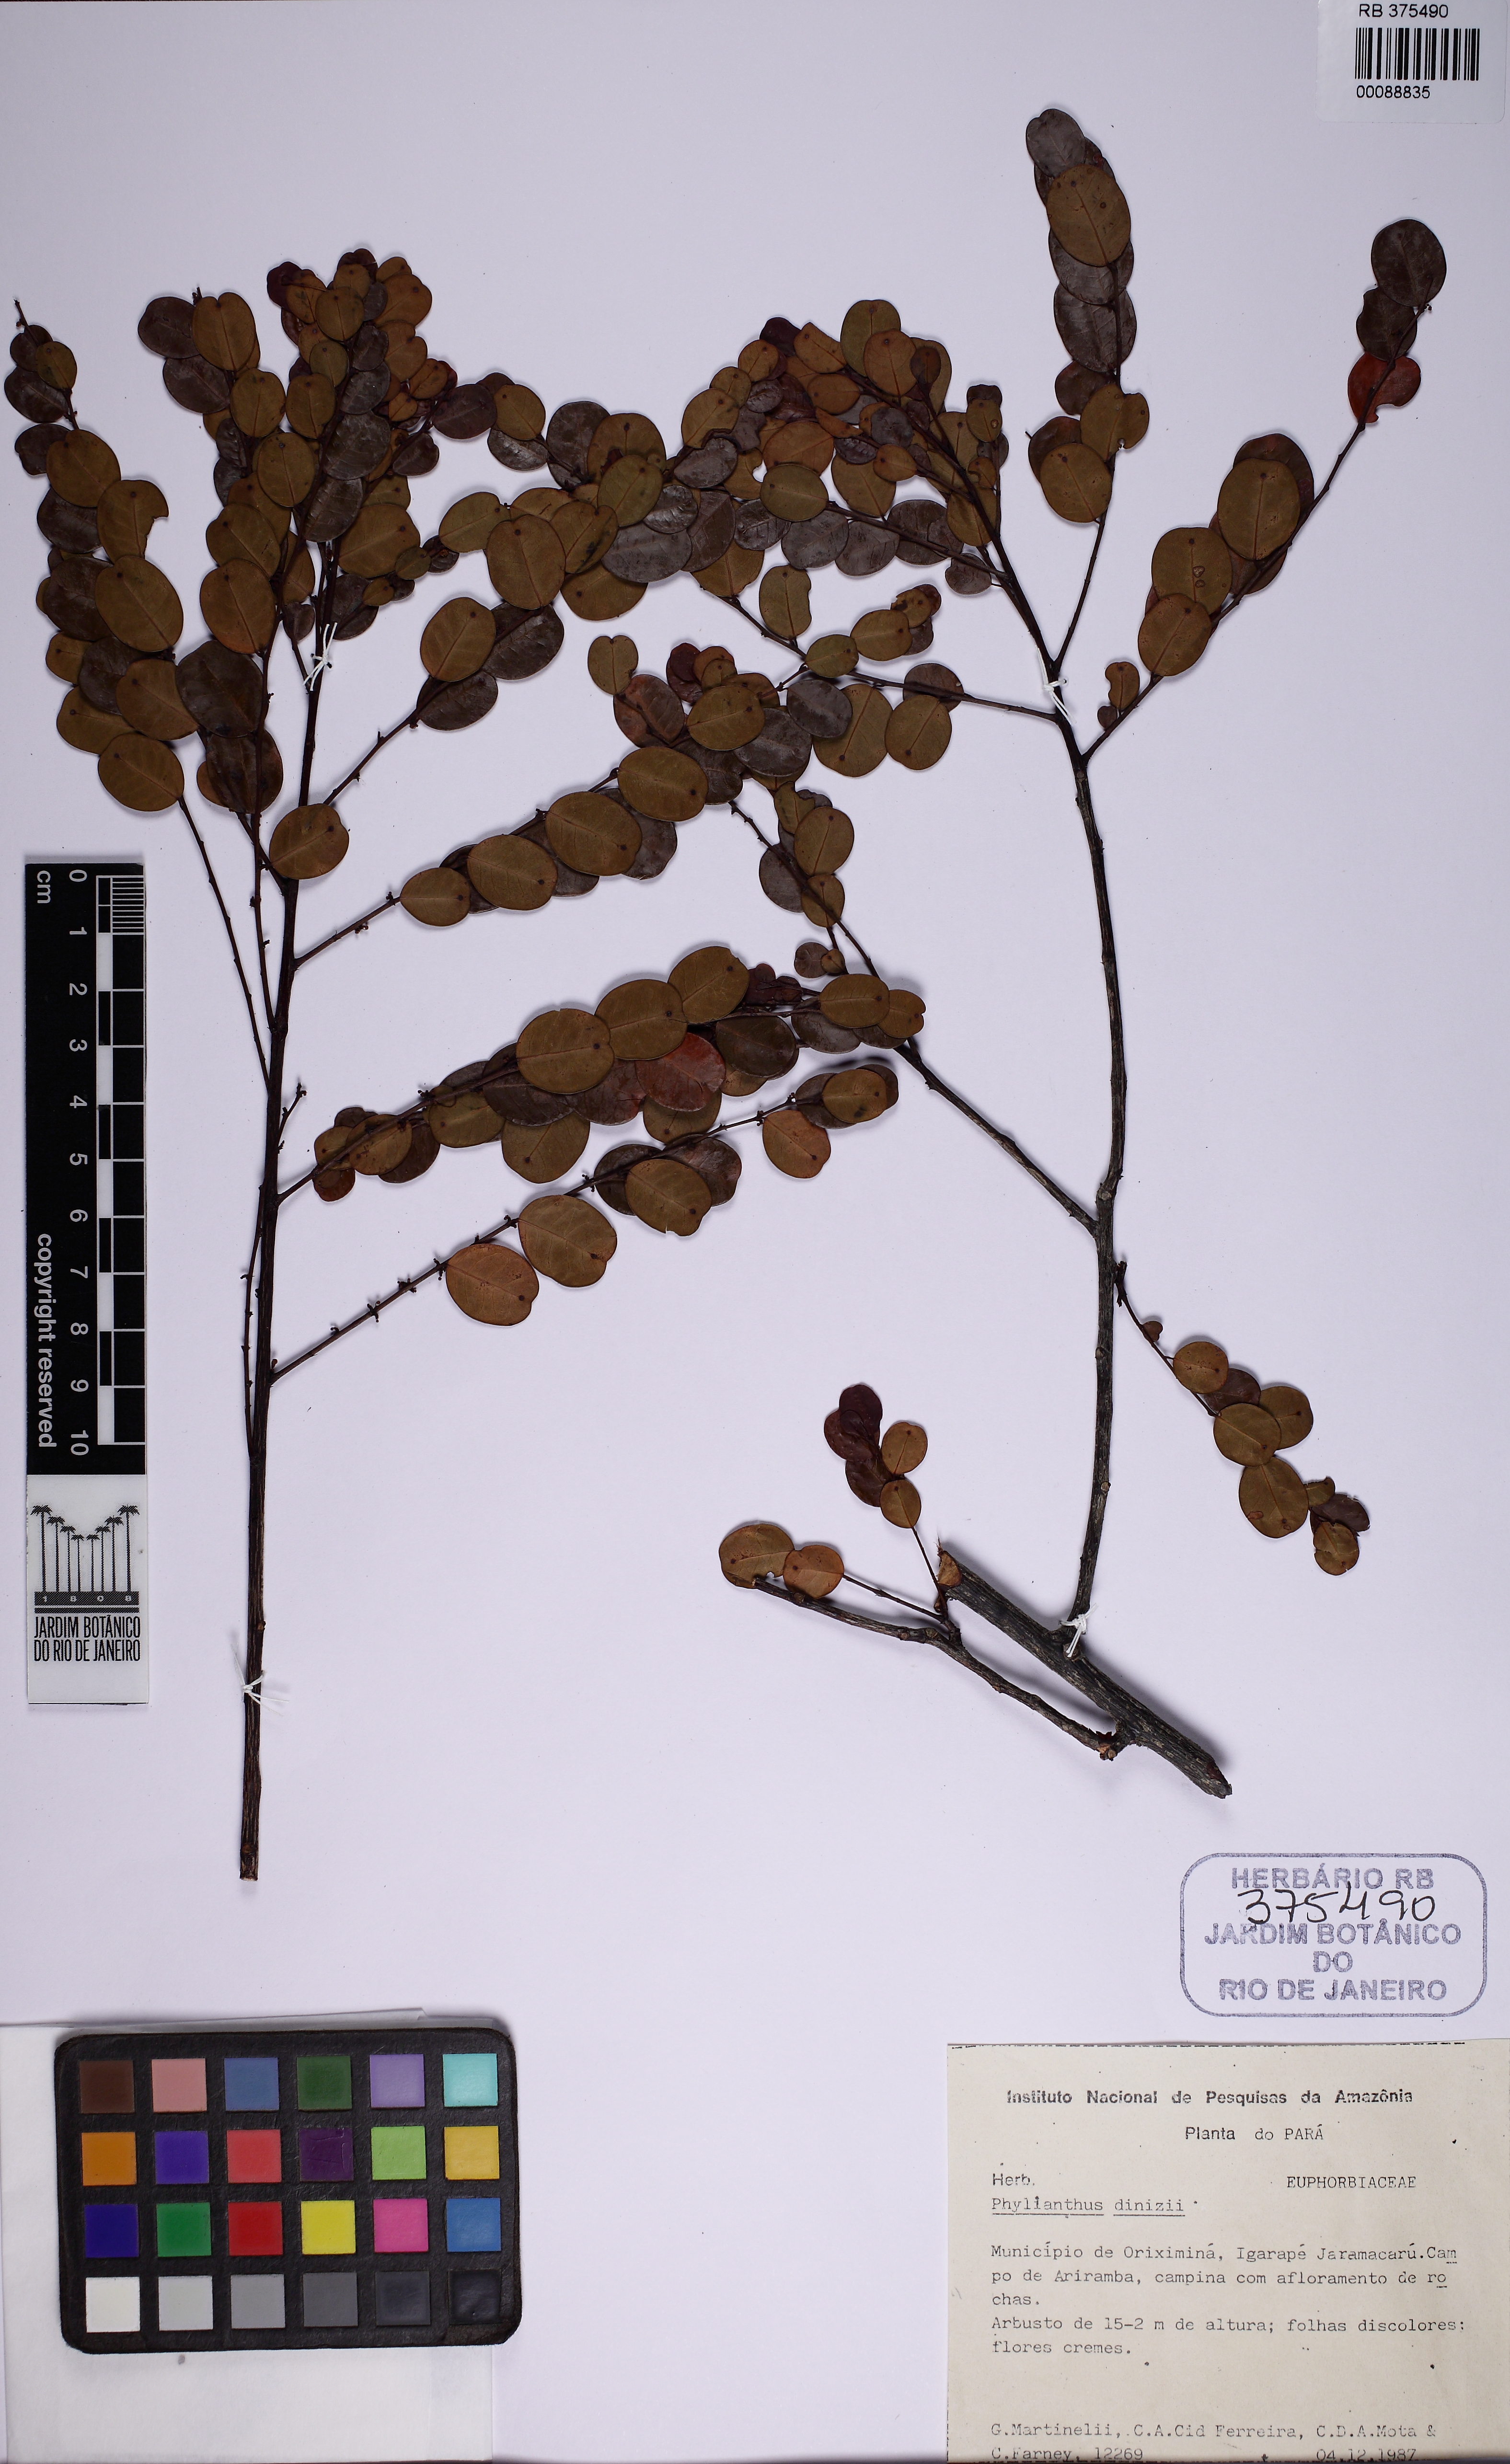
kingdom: Plantae
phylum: Tracheophyta
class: Magnoliopsida
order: Malpighiales
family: Phyllanthaceae
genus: Phyllanthus
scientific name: Phyllanthus myrsinites
